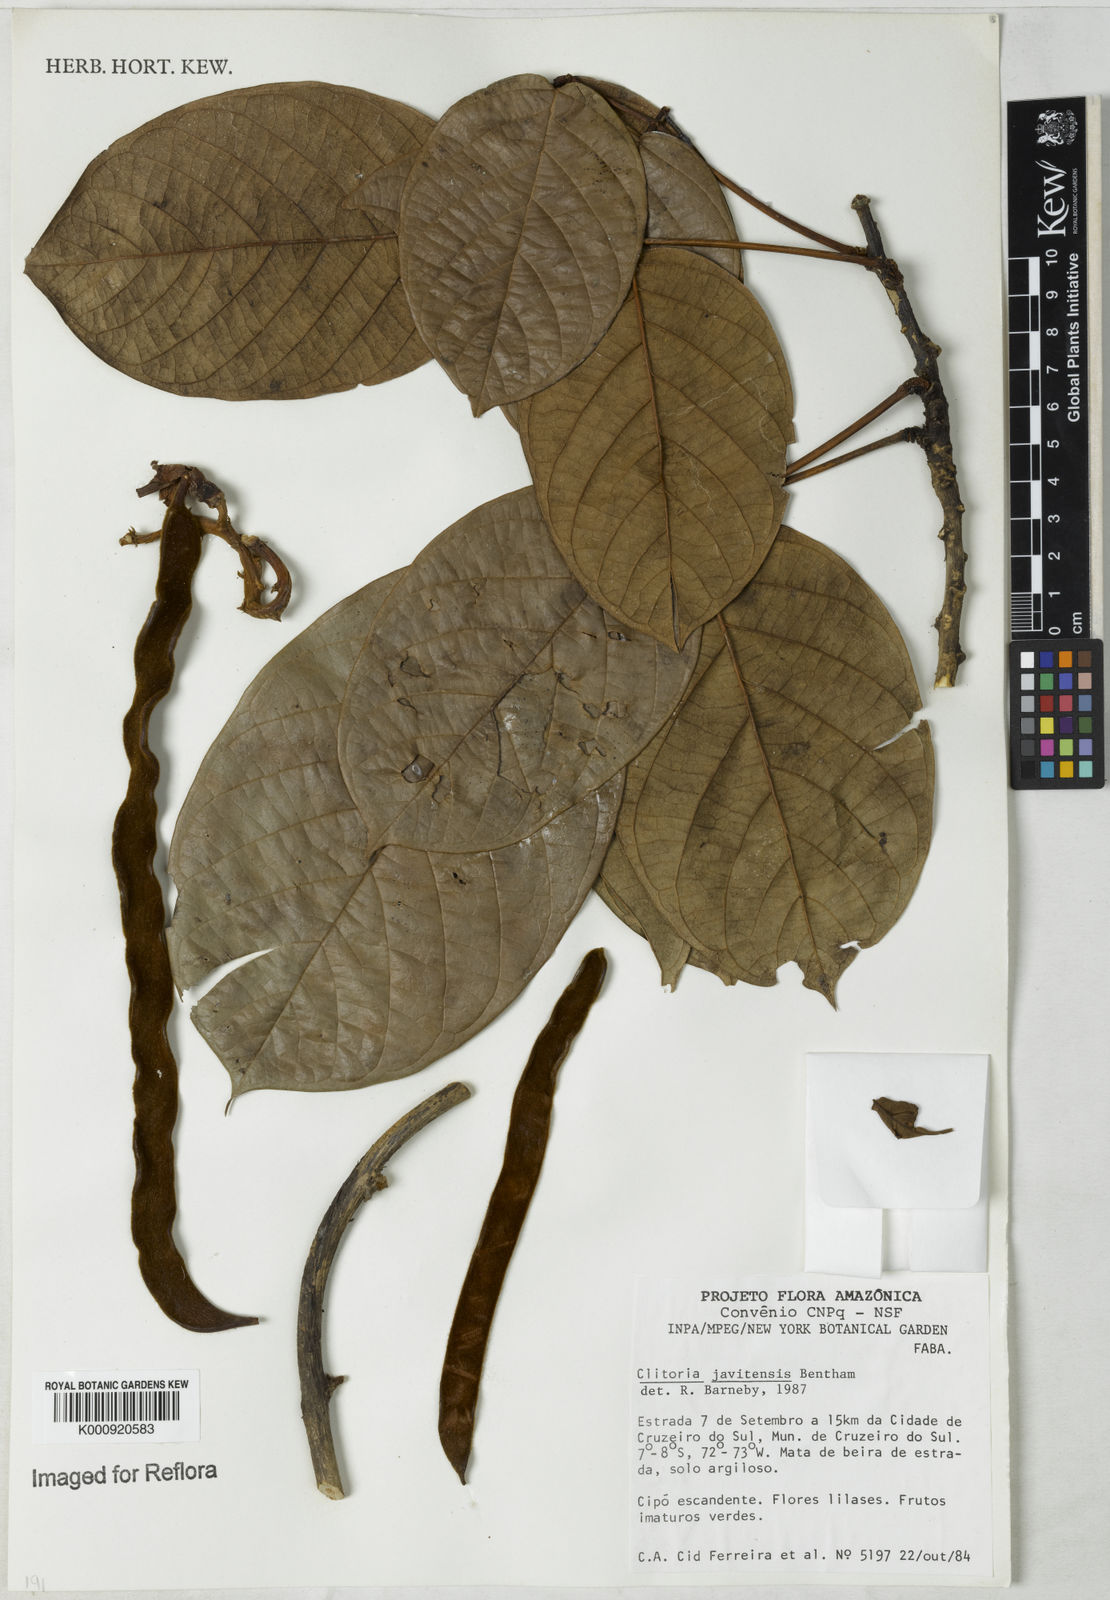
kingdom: Plantae
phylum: Tracheophyta
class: Magnoliopsida
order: Fabales
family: Fabaceae
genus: Clitoria
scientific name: Clitoria javitensis
